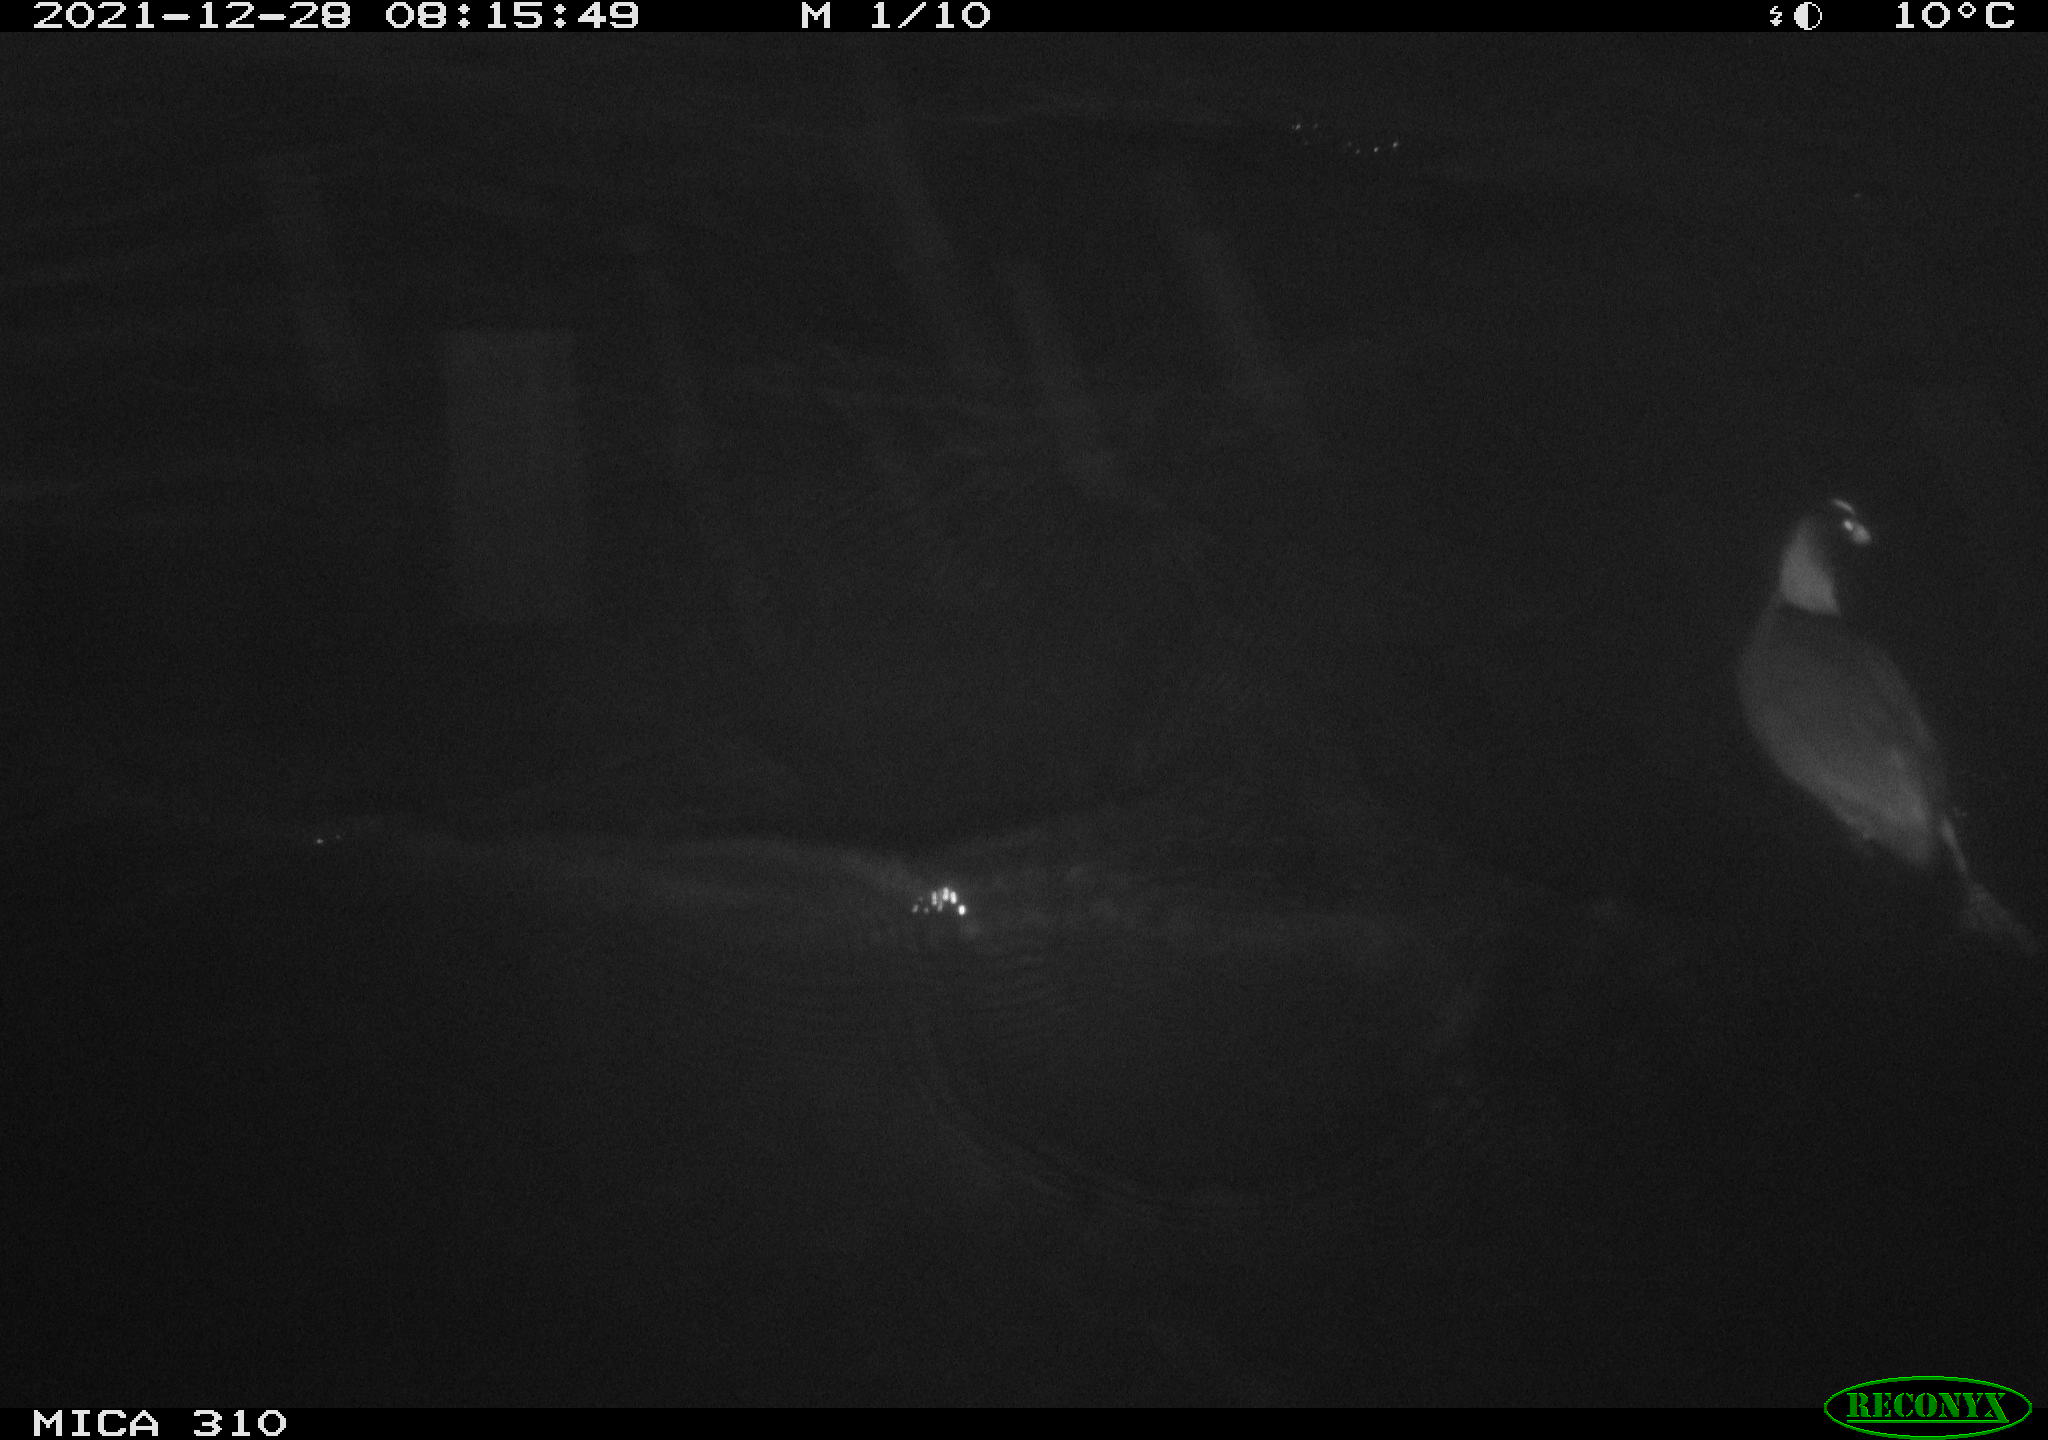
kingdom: Animalia
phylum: Chordata
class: Aves
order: Gruiformes
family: Rallidae
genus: Fulica
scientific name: Fulica atra
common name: Eurasian coot
